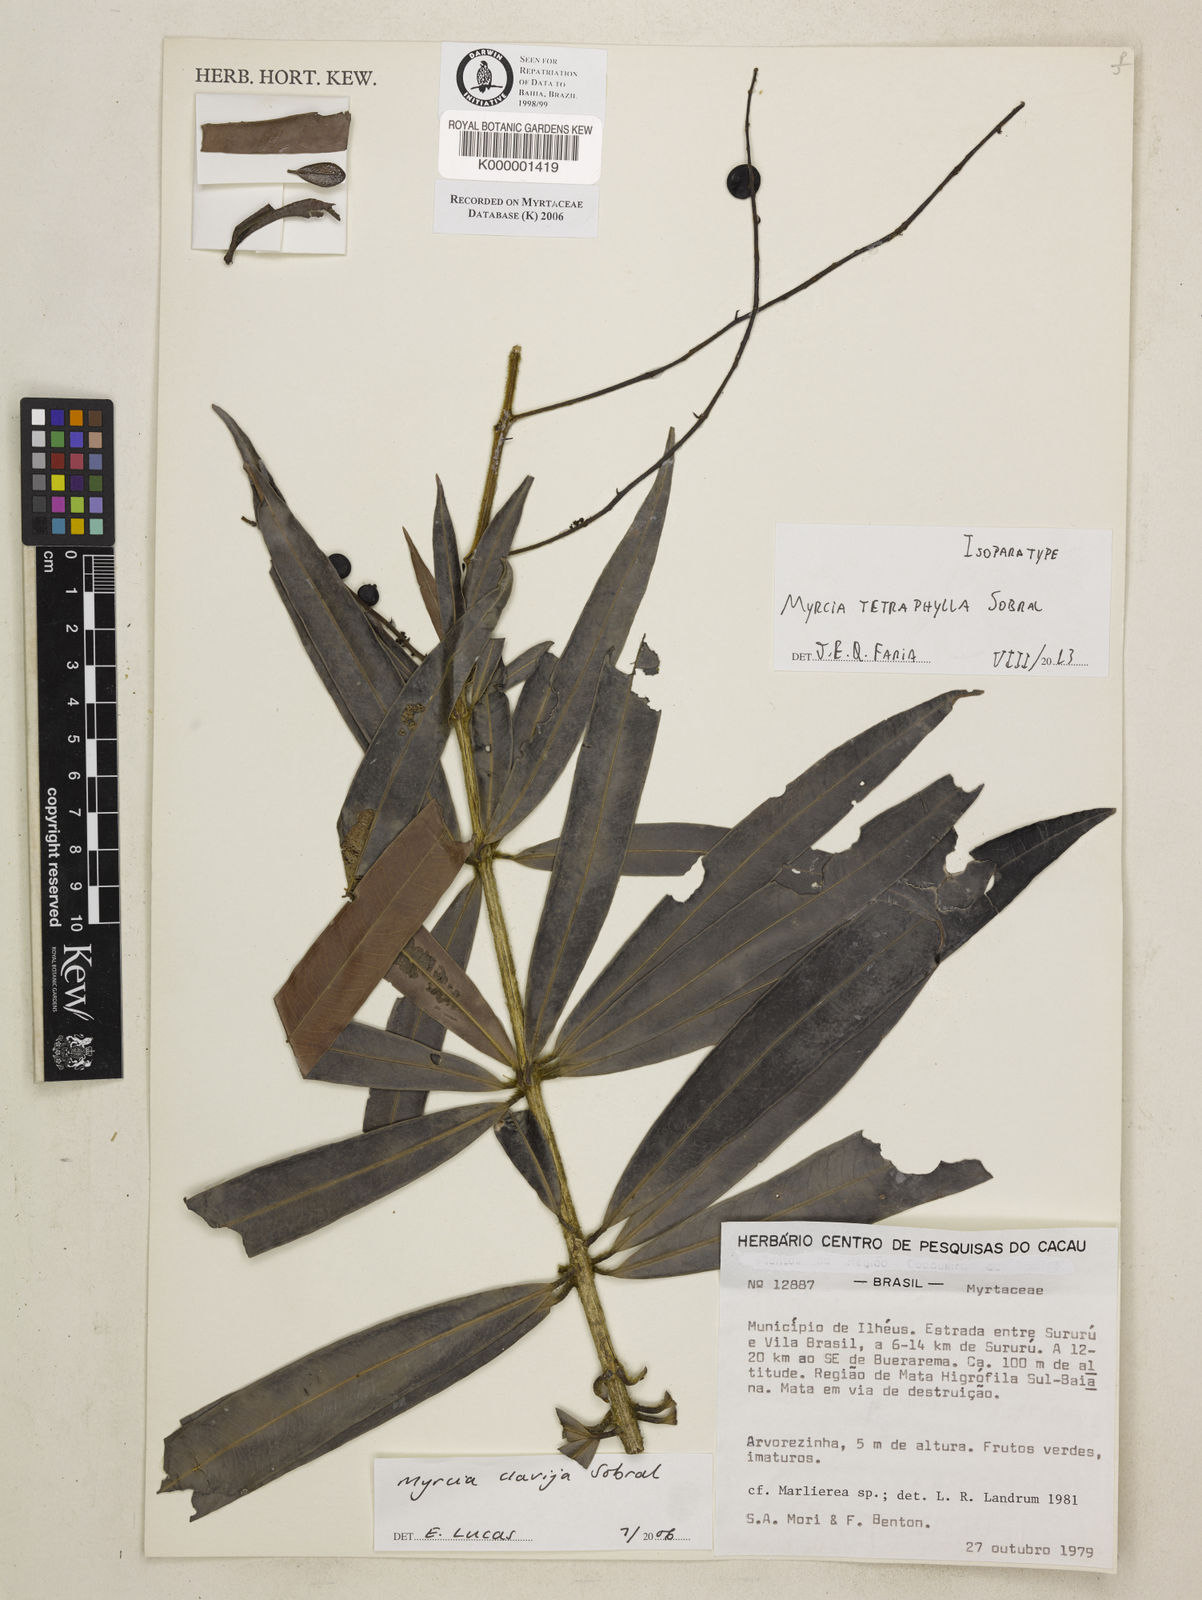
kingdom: Plantae
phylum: Tracheophyta
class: Magnoliopsida
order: Myrtales
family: Myrtaceae
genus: Myrcia
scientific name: Myrcia tetraphylla
